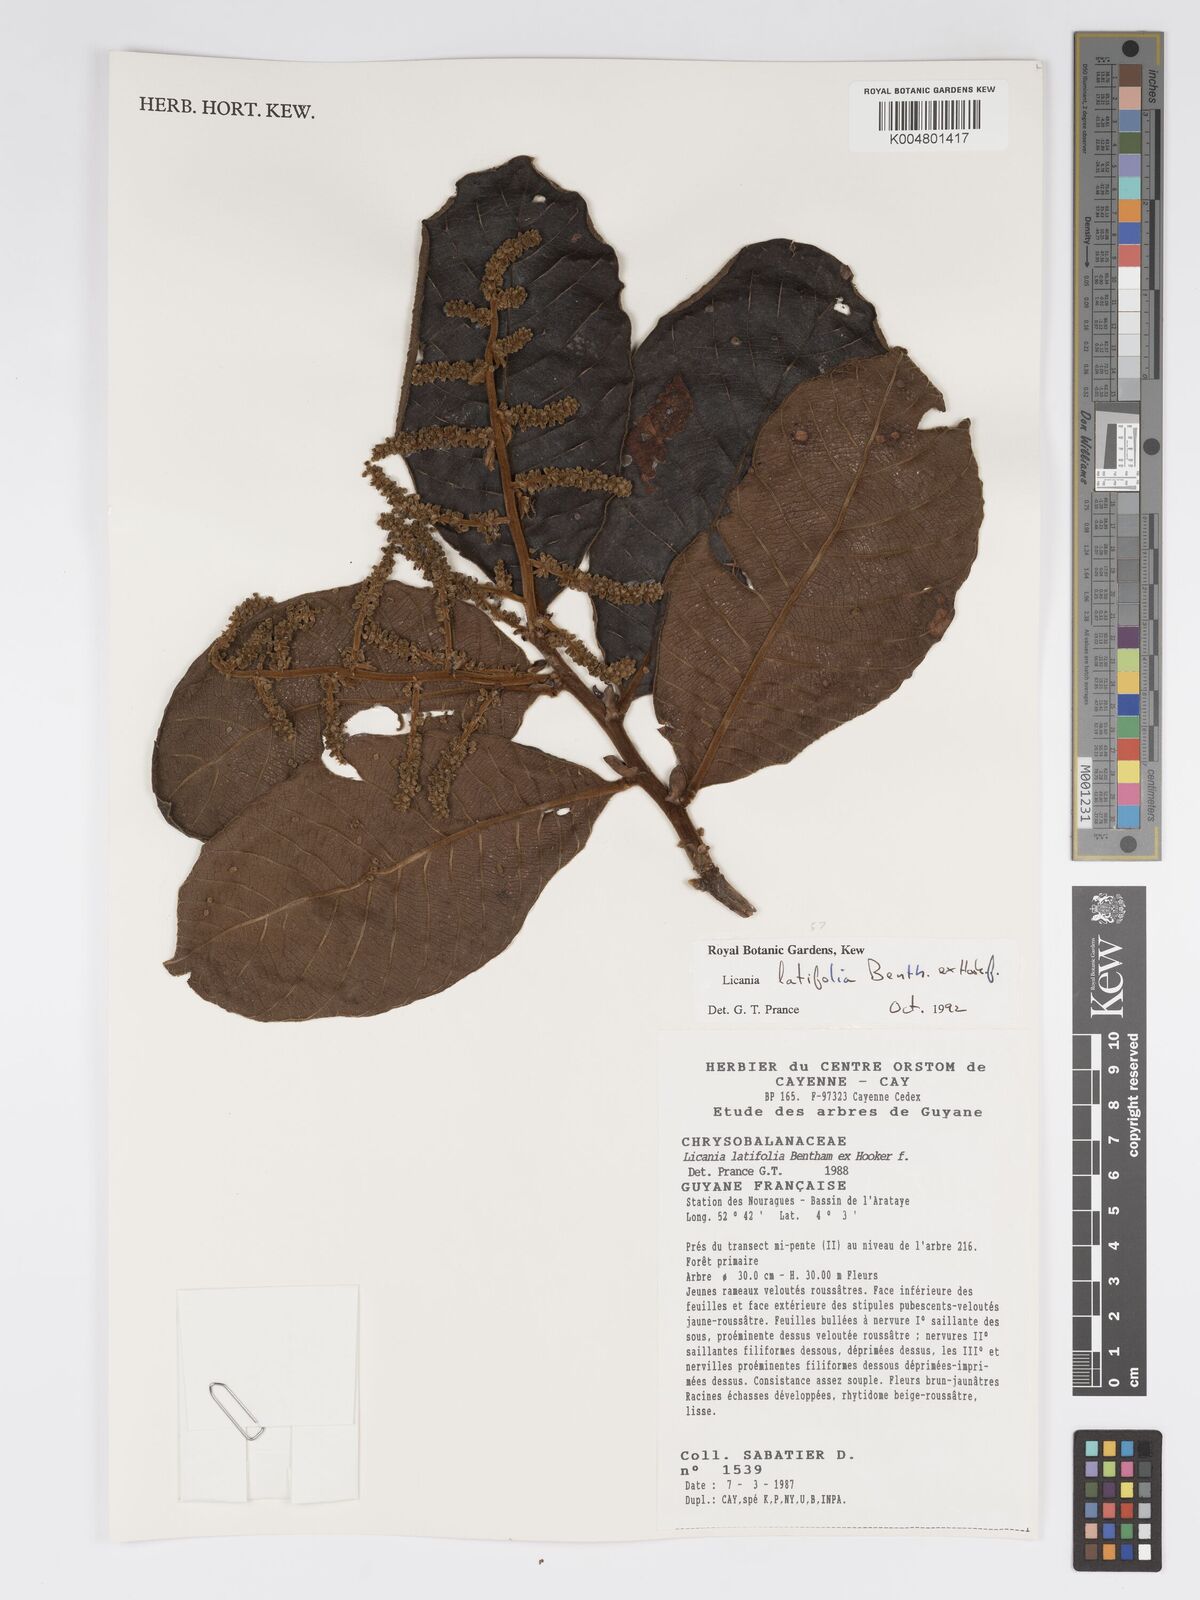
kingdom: Plantae
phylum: Tracheophyta
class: Magnoliopsida
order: Malpighiales
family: Chrysobalanaceae
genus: Hymenopus
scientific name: Hymenopus latifolius
